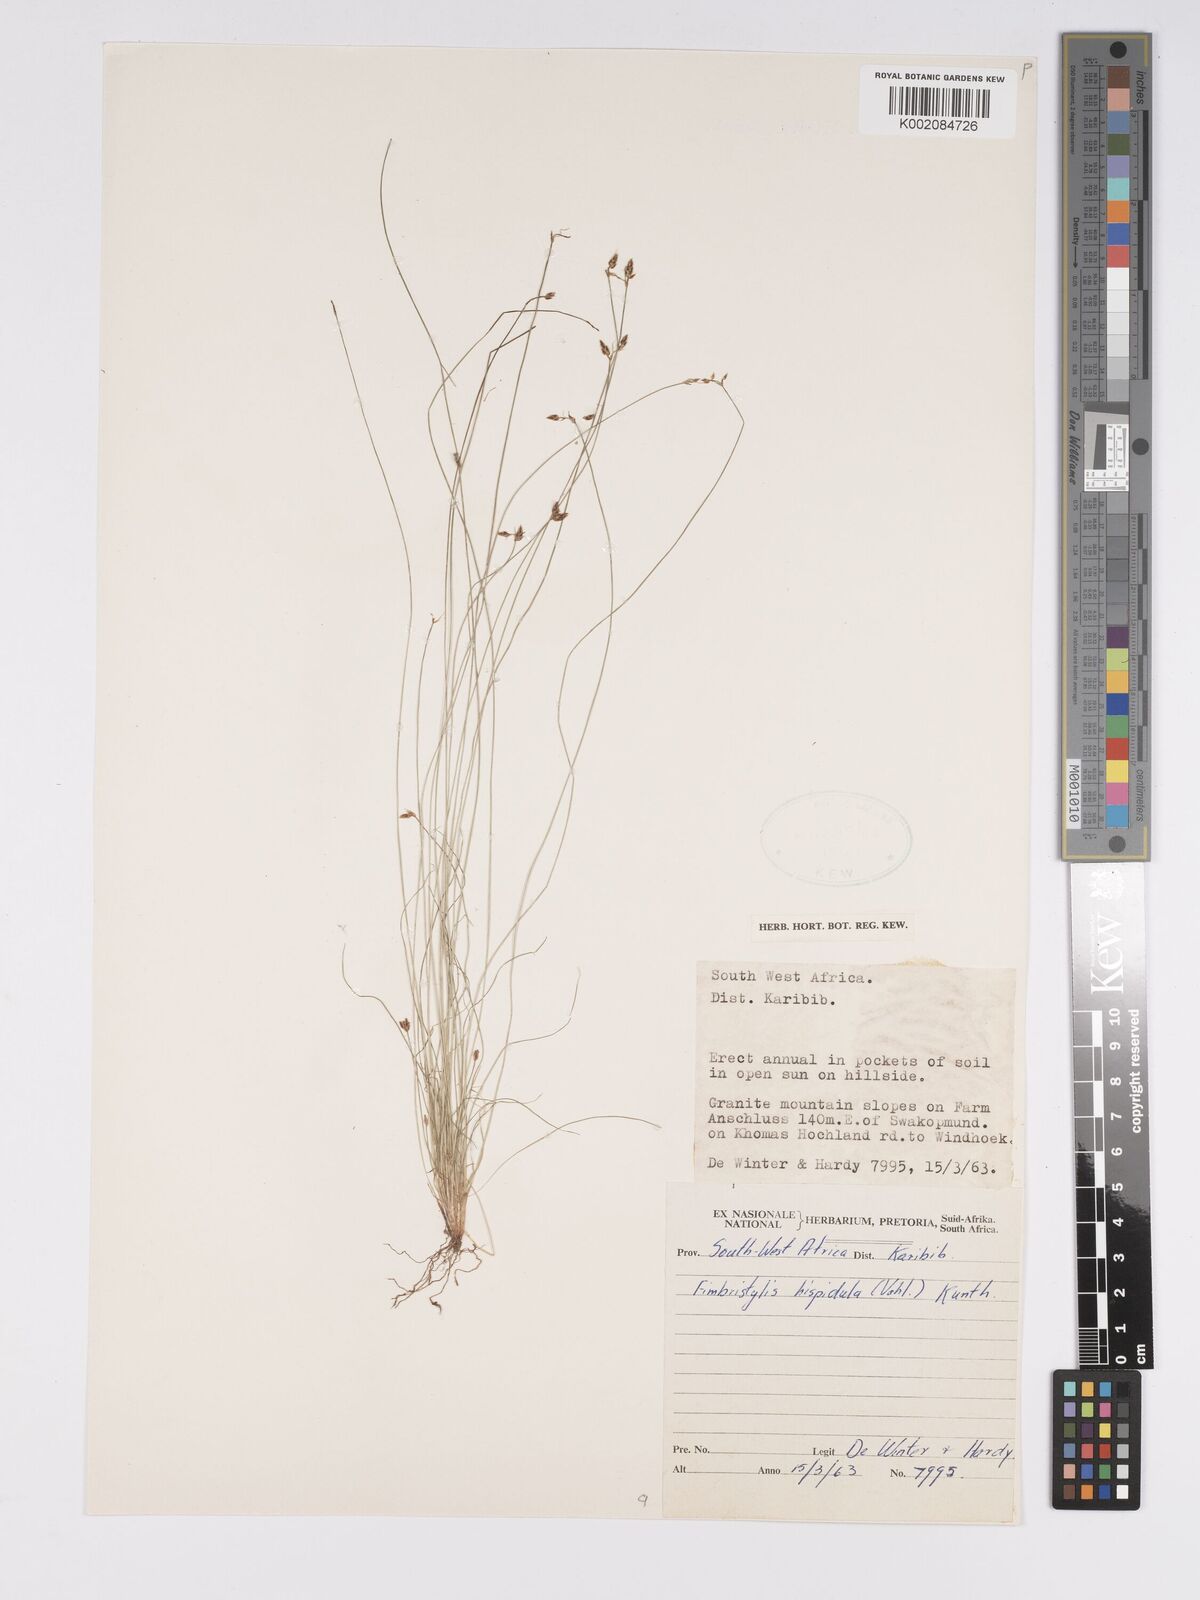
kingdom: Plantae
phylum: Tracheophyta
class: Liliopsida
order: Poales
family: Cyperaceae
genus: Bulbostylis
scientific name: Bulbostylis hispidula
